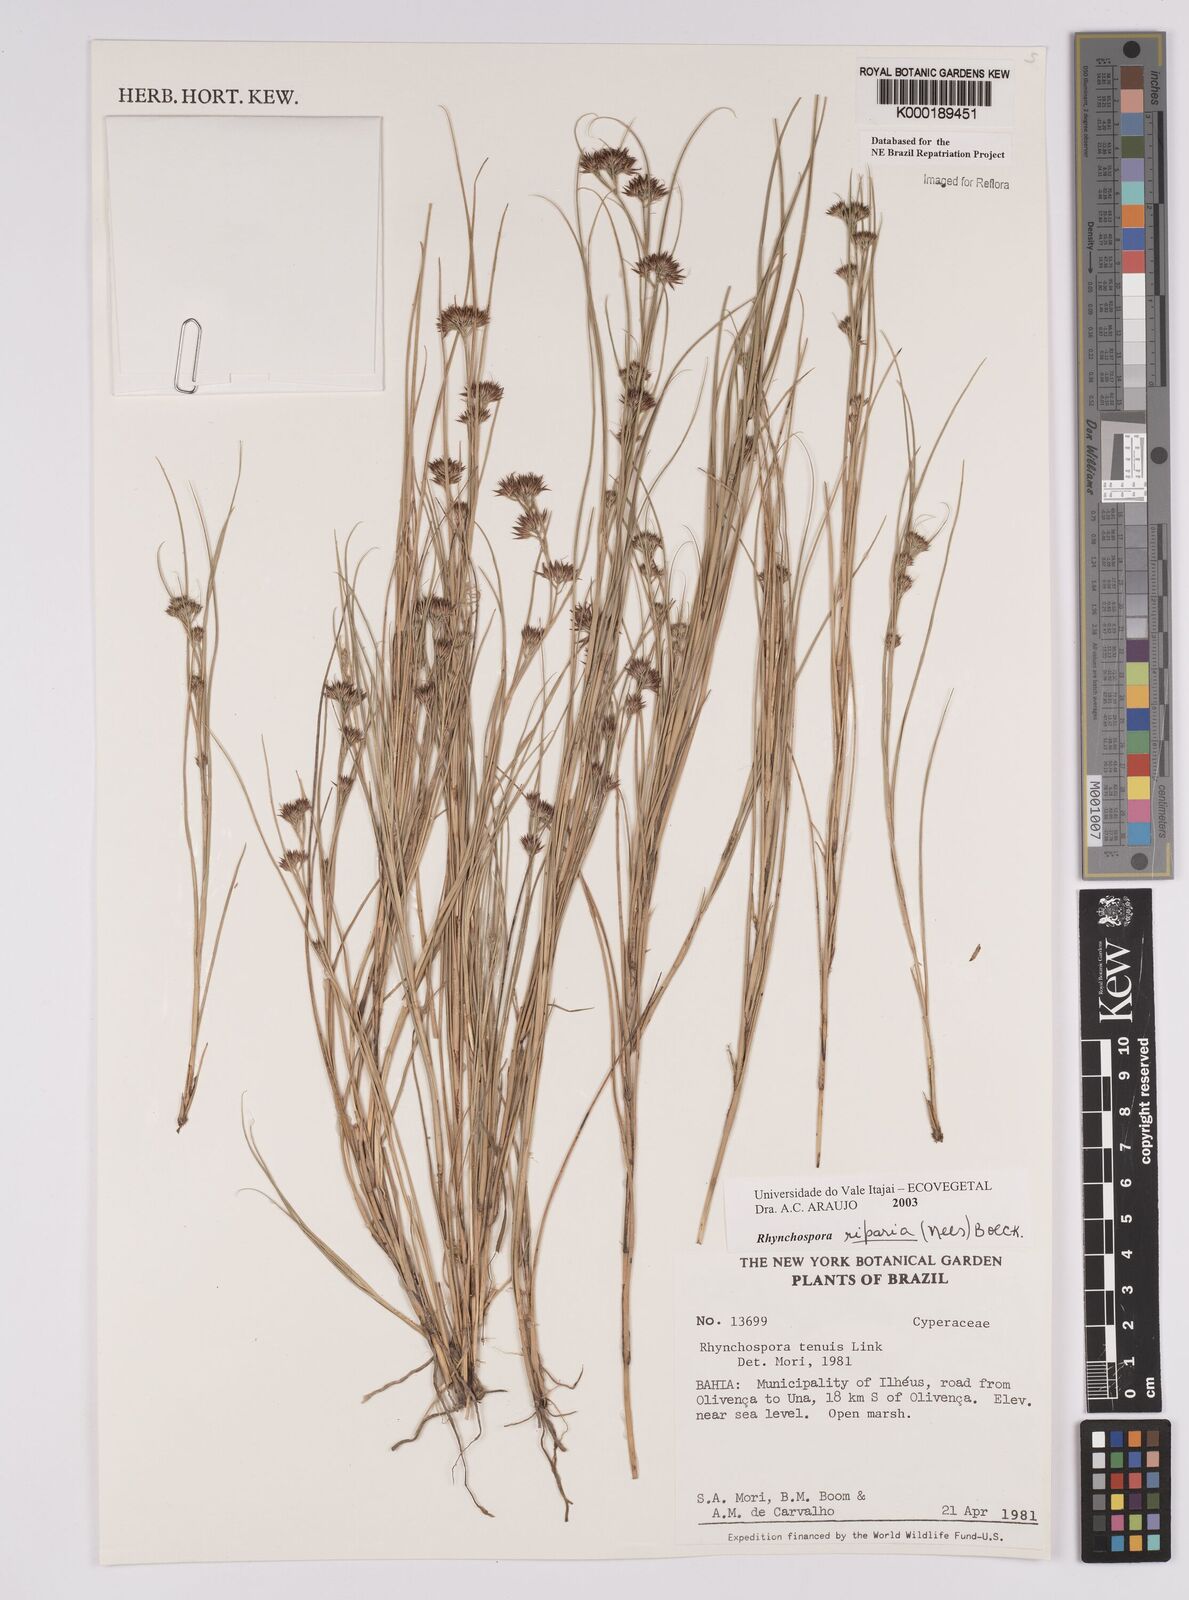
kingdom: Plantae
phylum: Tracheophyta
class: Liliopsida
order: Poales
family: Cyperaceae
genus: Rhynchospora
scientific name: Rhynchospora riparia
